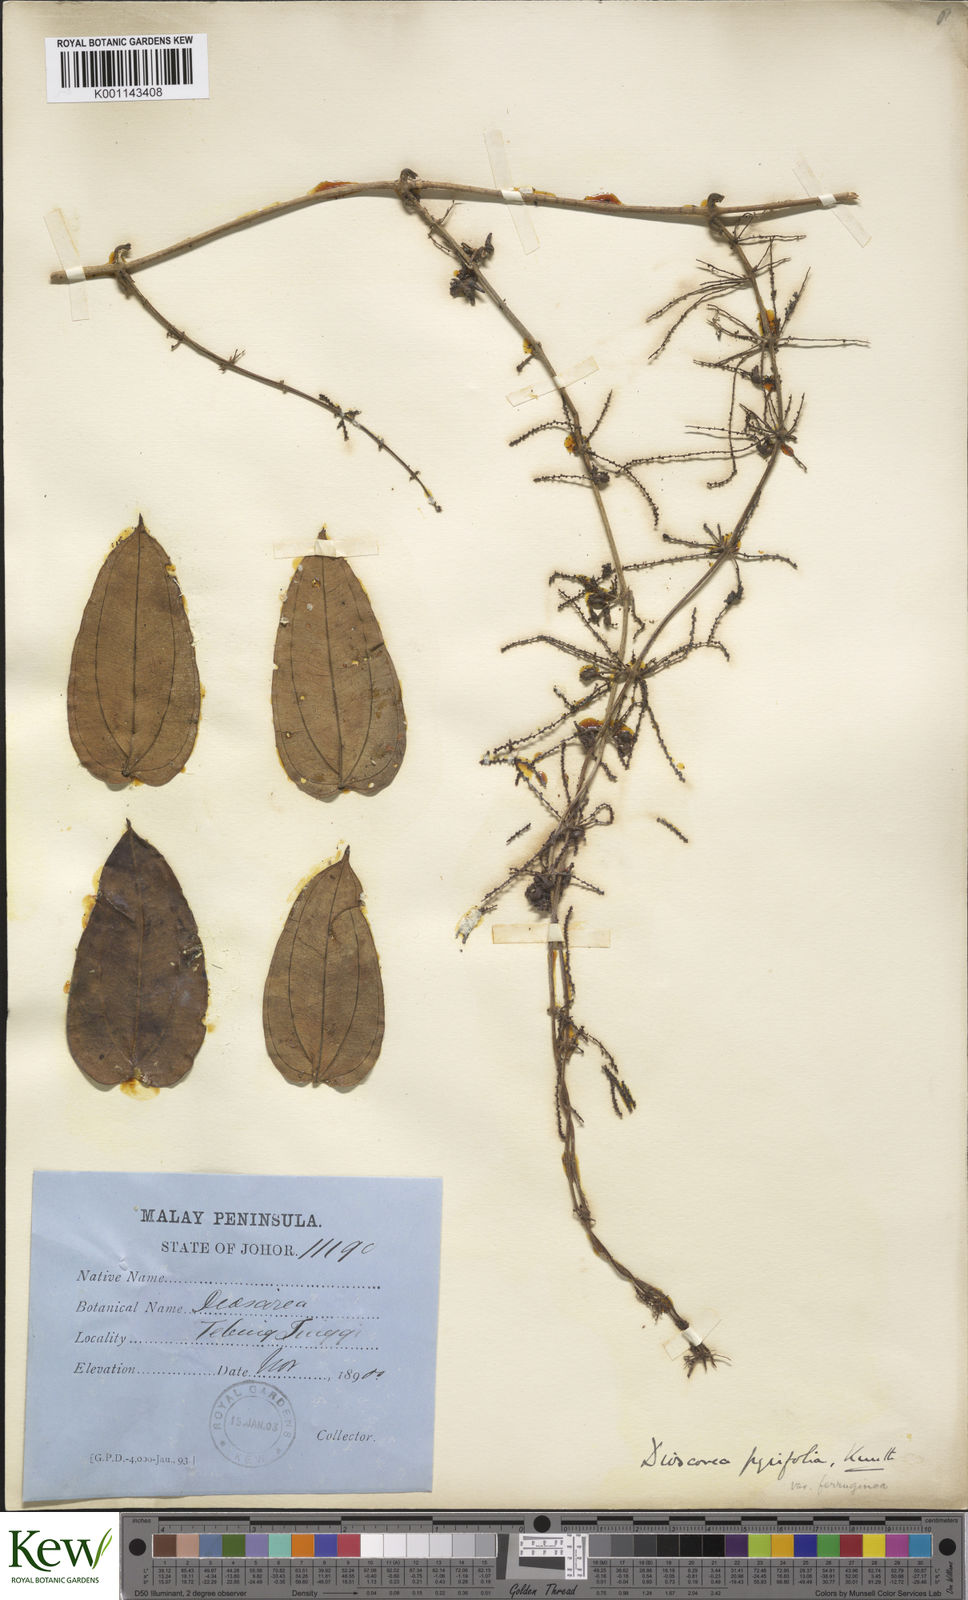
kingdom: Plantae
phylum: Tracheophyta
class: Liliopsida
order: Dioscoreales
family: Dioscoreaceae
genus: Dioscorea
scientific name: Dioscorea pyrifolia
